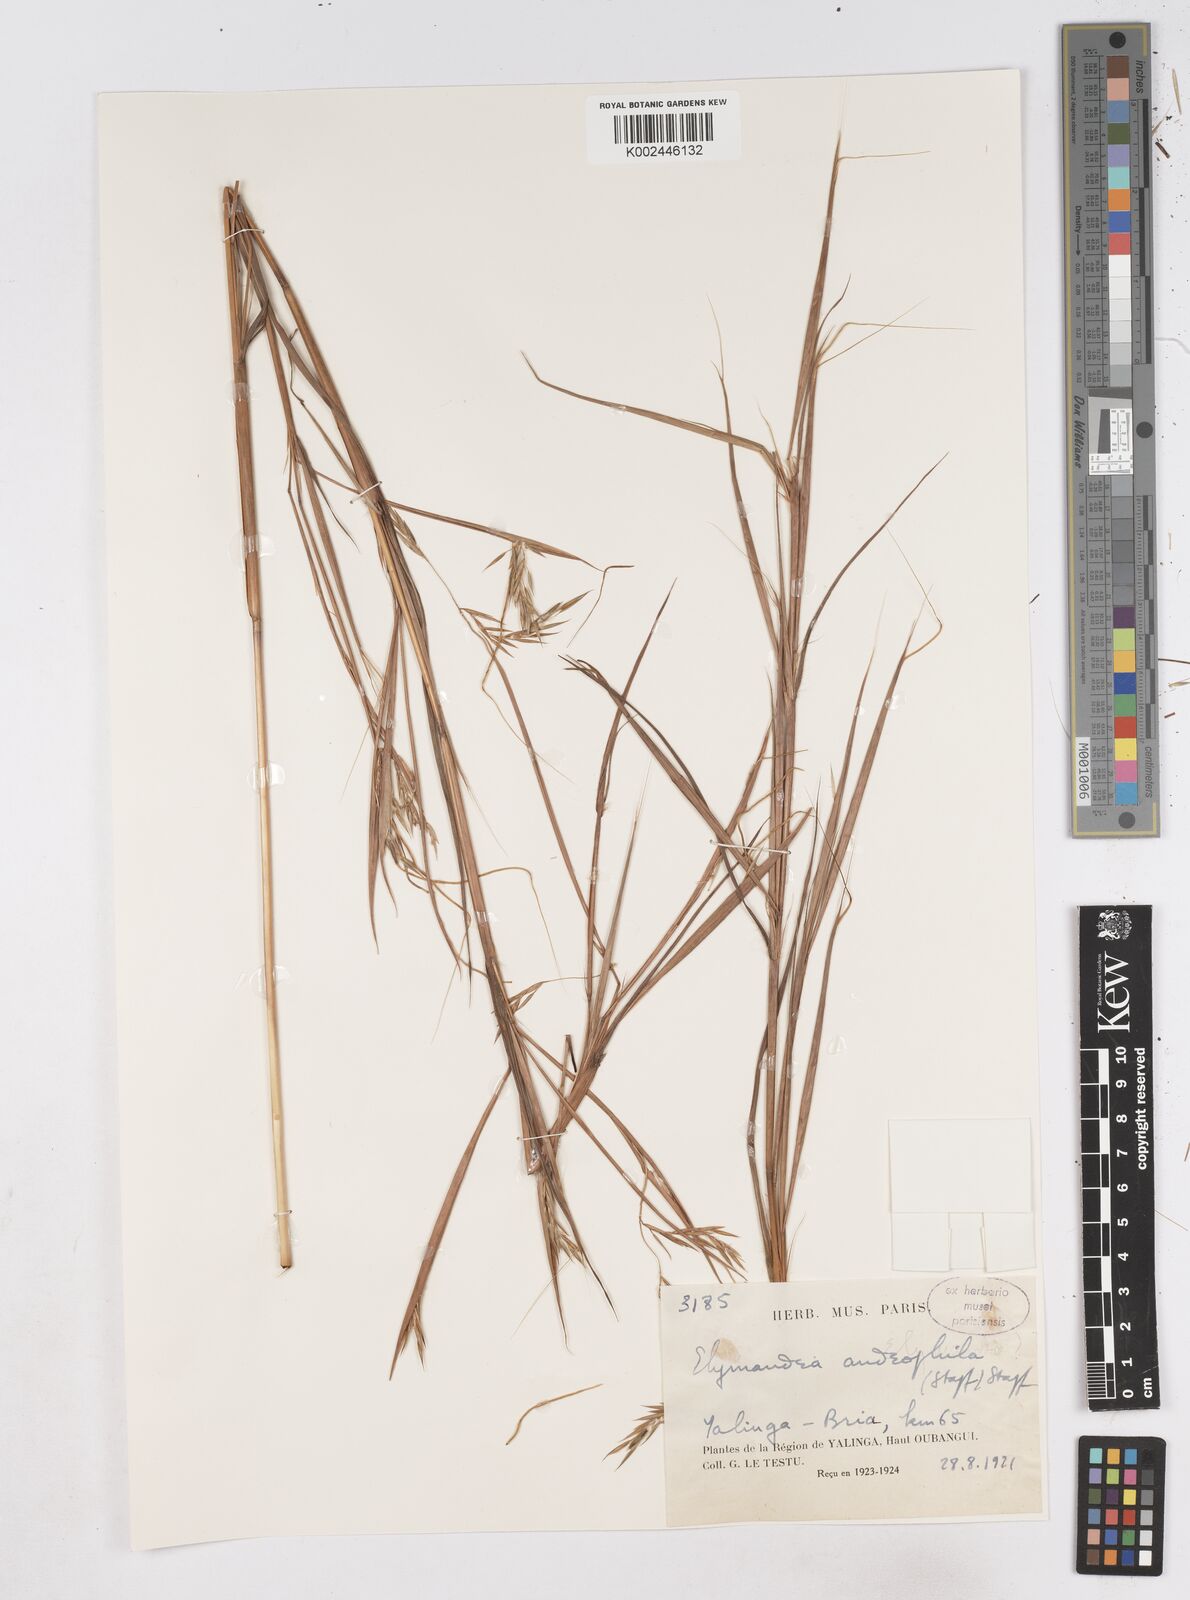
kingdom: Plantae
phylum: Tracheophyta
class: Liliopsida
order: Poales
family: Poaceae
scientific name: Poaceae
